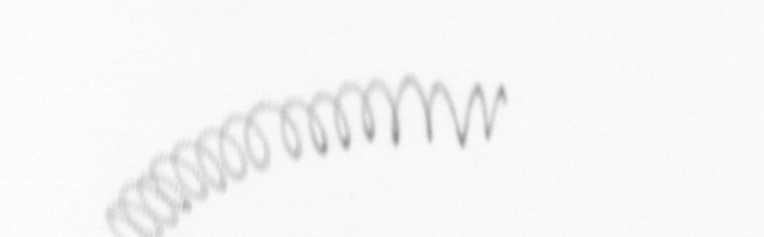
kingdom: Chromista
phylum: Ochrophyta
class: Bacillariophyceae
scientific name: Bacillariophyceae
